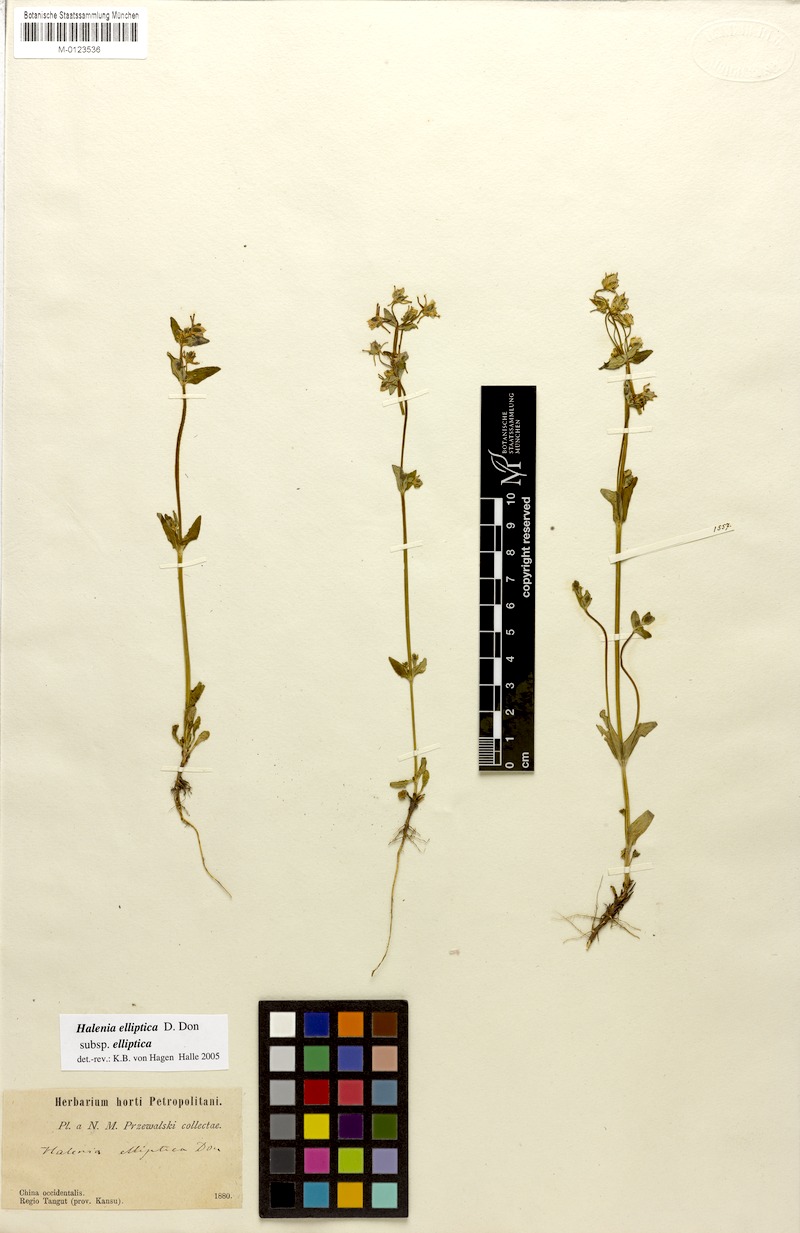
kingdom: Plantae
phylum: Tracheophyta
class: Magnoliopsida
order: Gentianales
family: Gentianaceae
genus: Halenia
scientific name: Halenia elliptica
